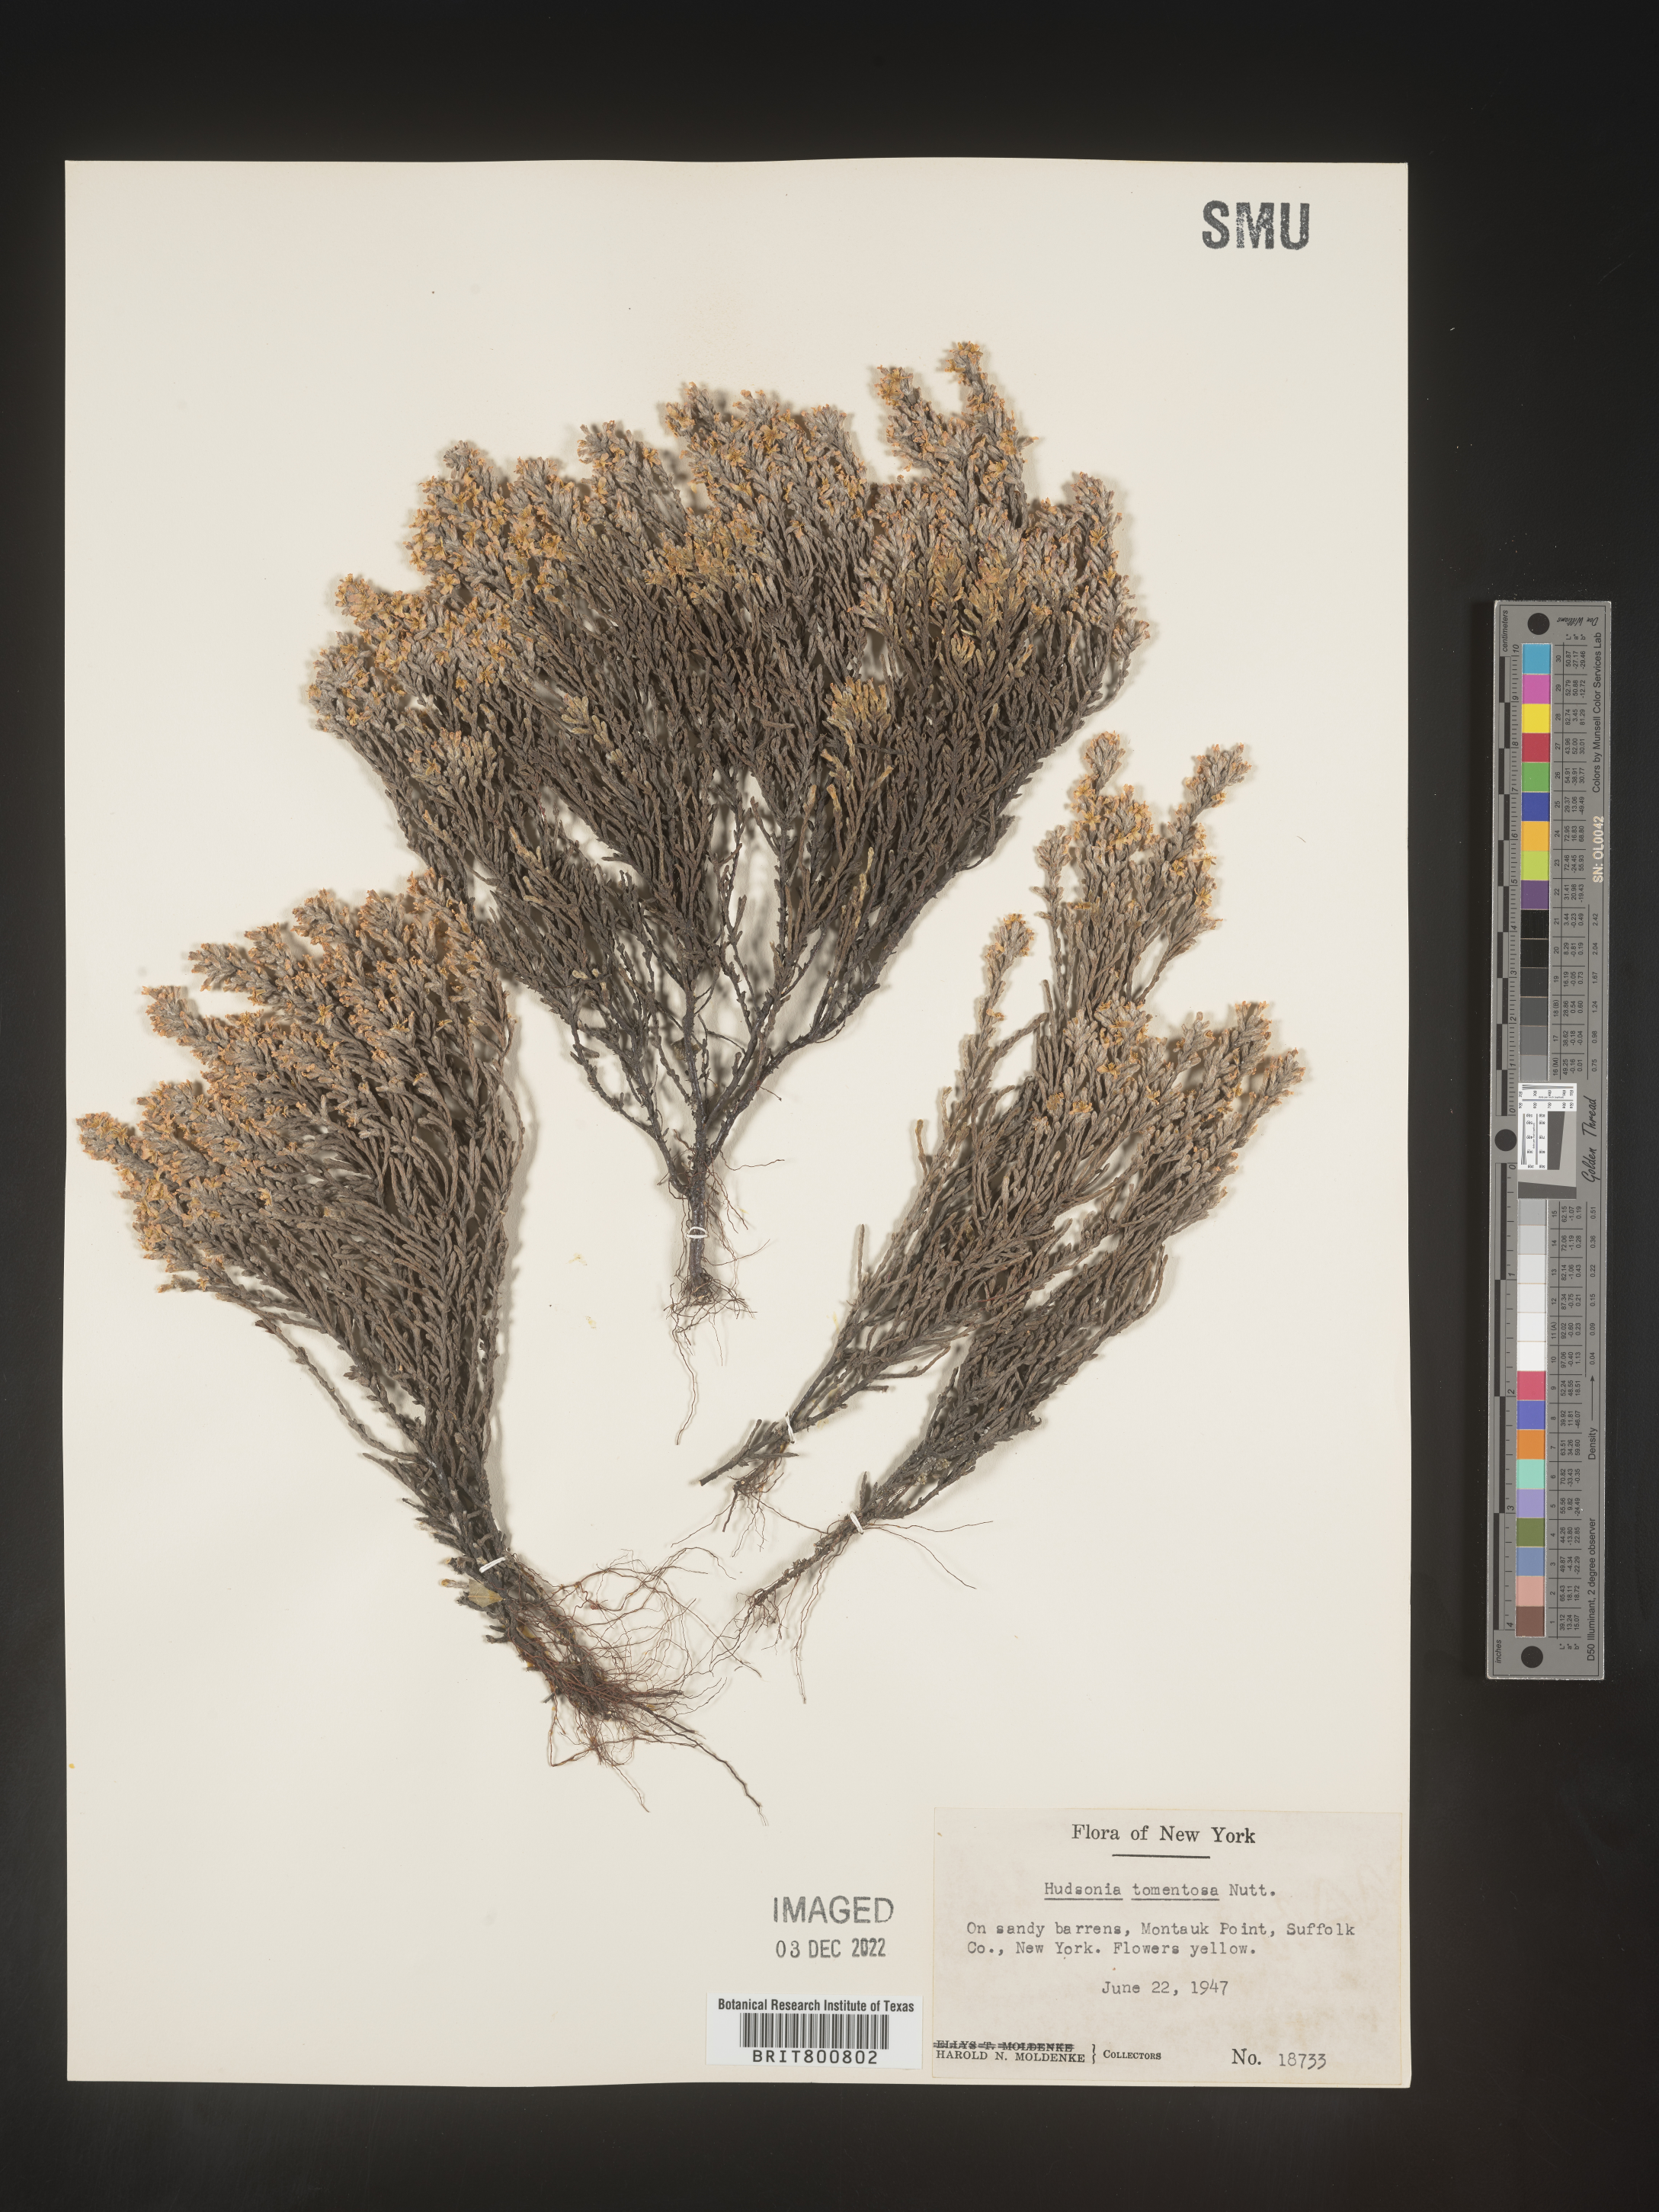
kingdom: Plantae
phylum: Tracheophyta
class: Magnoliopsida
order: Malvales
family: Cistaceae
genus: Hudsonia
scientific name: Hudsonia tomentosa
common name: Beach-heath
